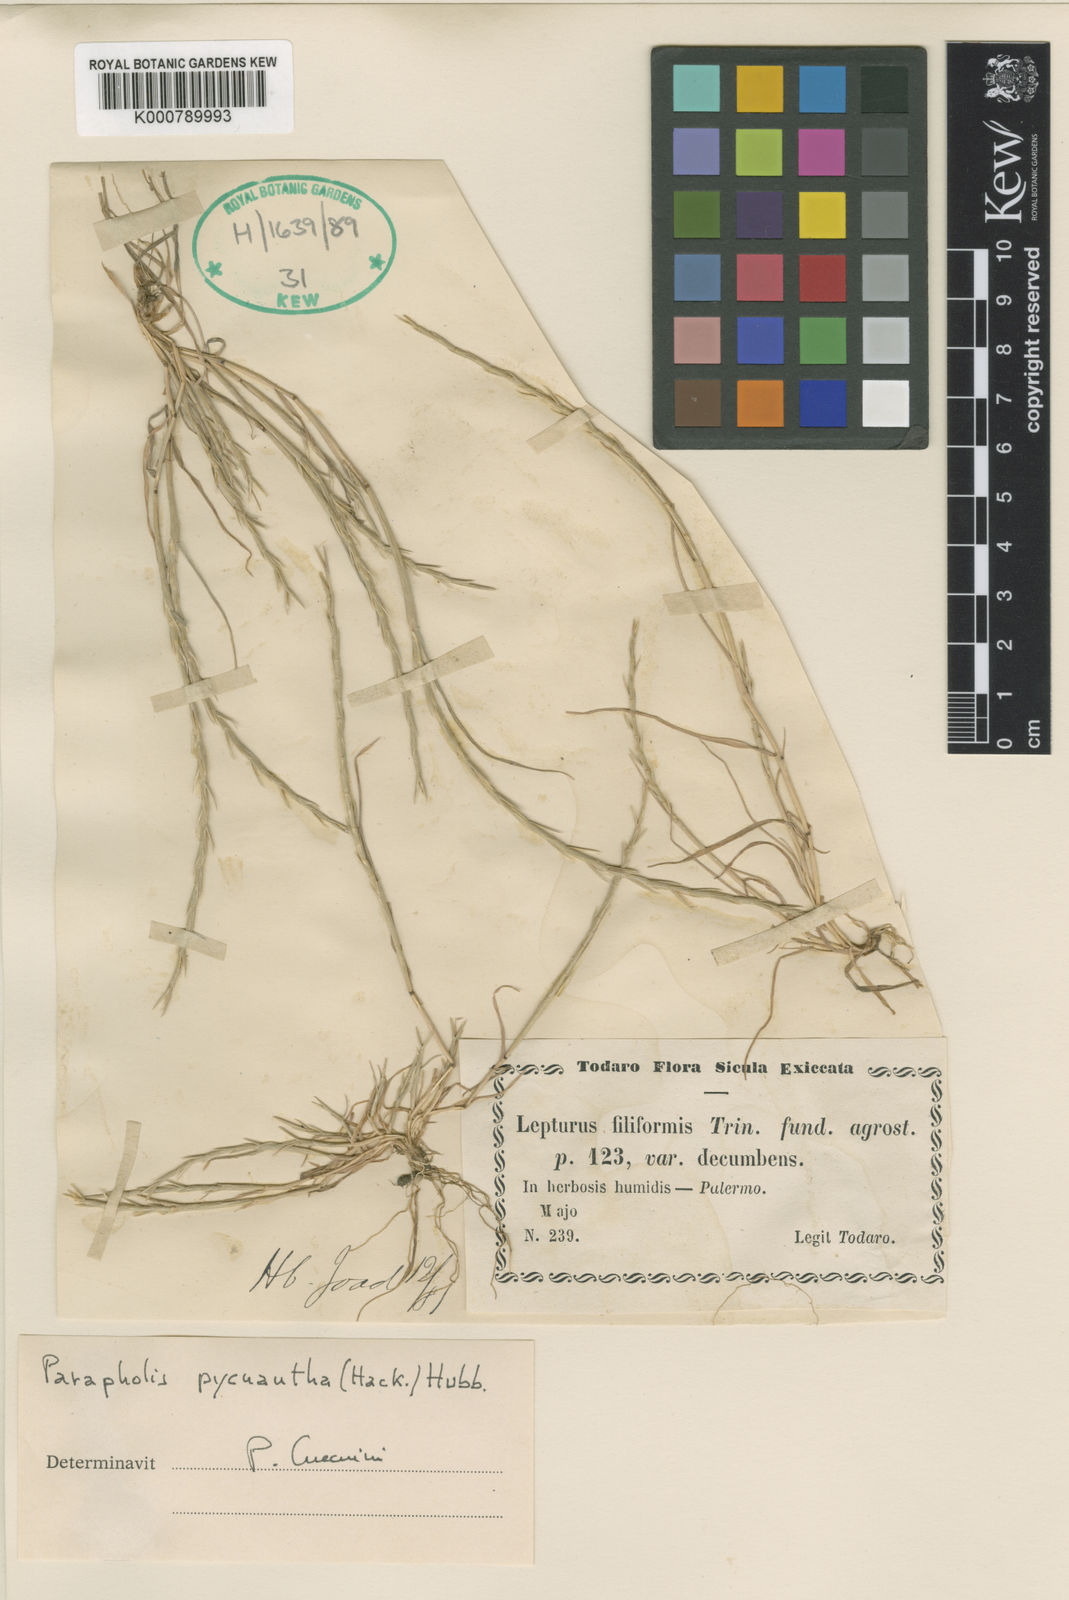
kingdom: Plantae
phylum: Tracheophyta
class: Liliopsida
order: Poales
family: Poaceae
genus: Parapholis
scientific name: Parapholis pycnantha
